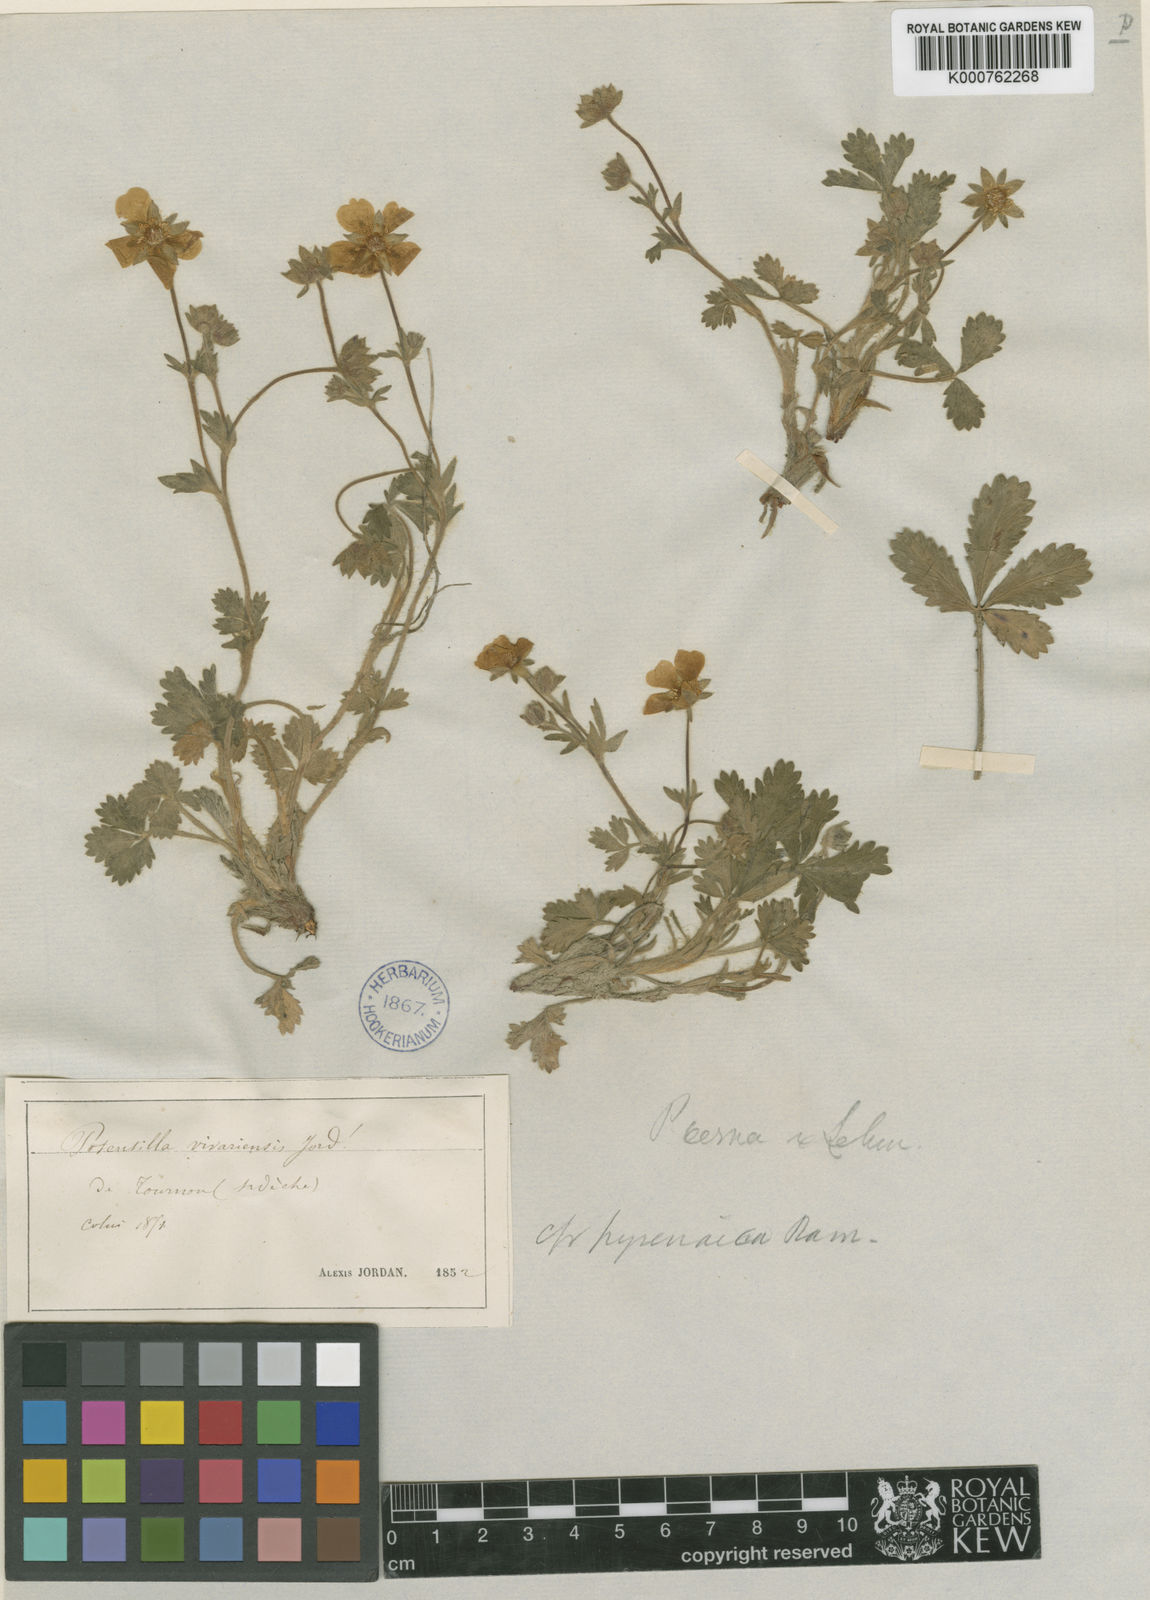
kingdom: Plantae
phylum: Tracheophyta
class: Magnoliopsida
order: Rosales
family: Rosaceae
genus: Potentilla
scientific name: Potentilla verna
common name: Spring cinquefoil
